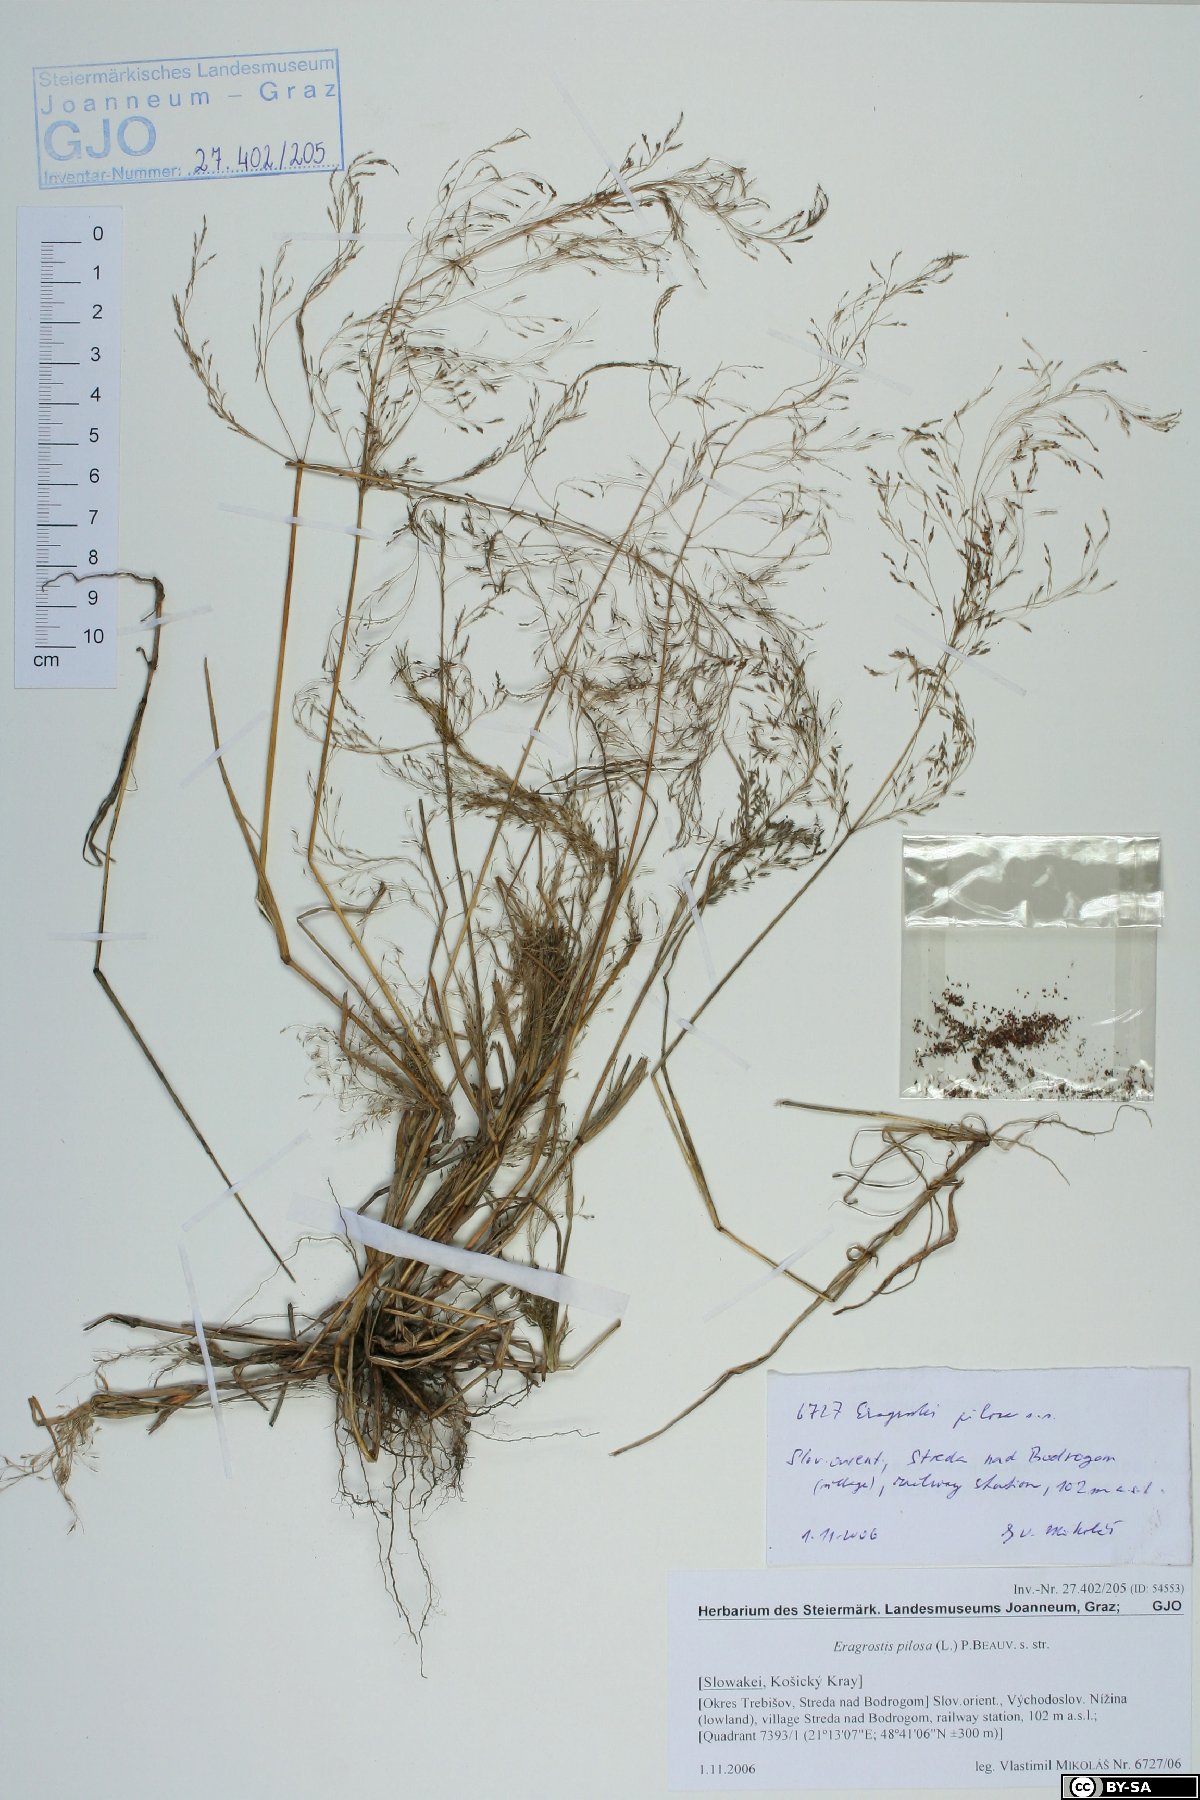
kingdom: Plantae
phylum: Tracheophyta
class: Liliopsida
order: Poales
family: Poaceae
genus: Eragrostis
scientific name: Eragrostis pilosa
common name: Indian lovegrass
